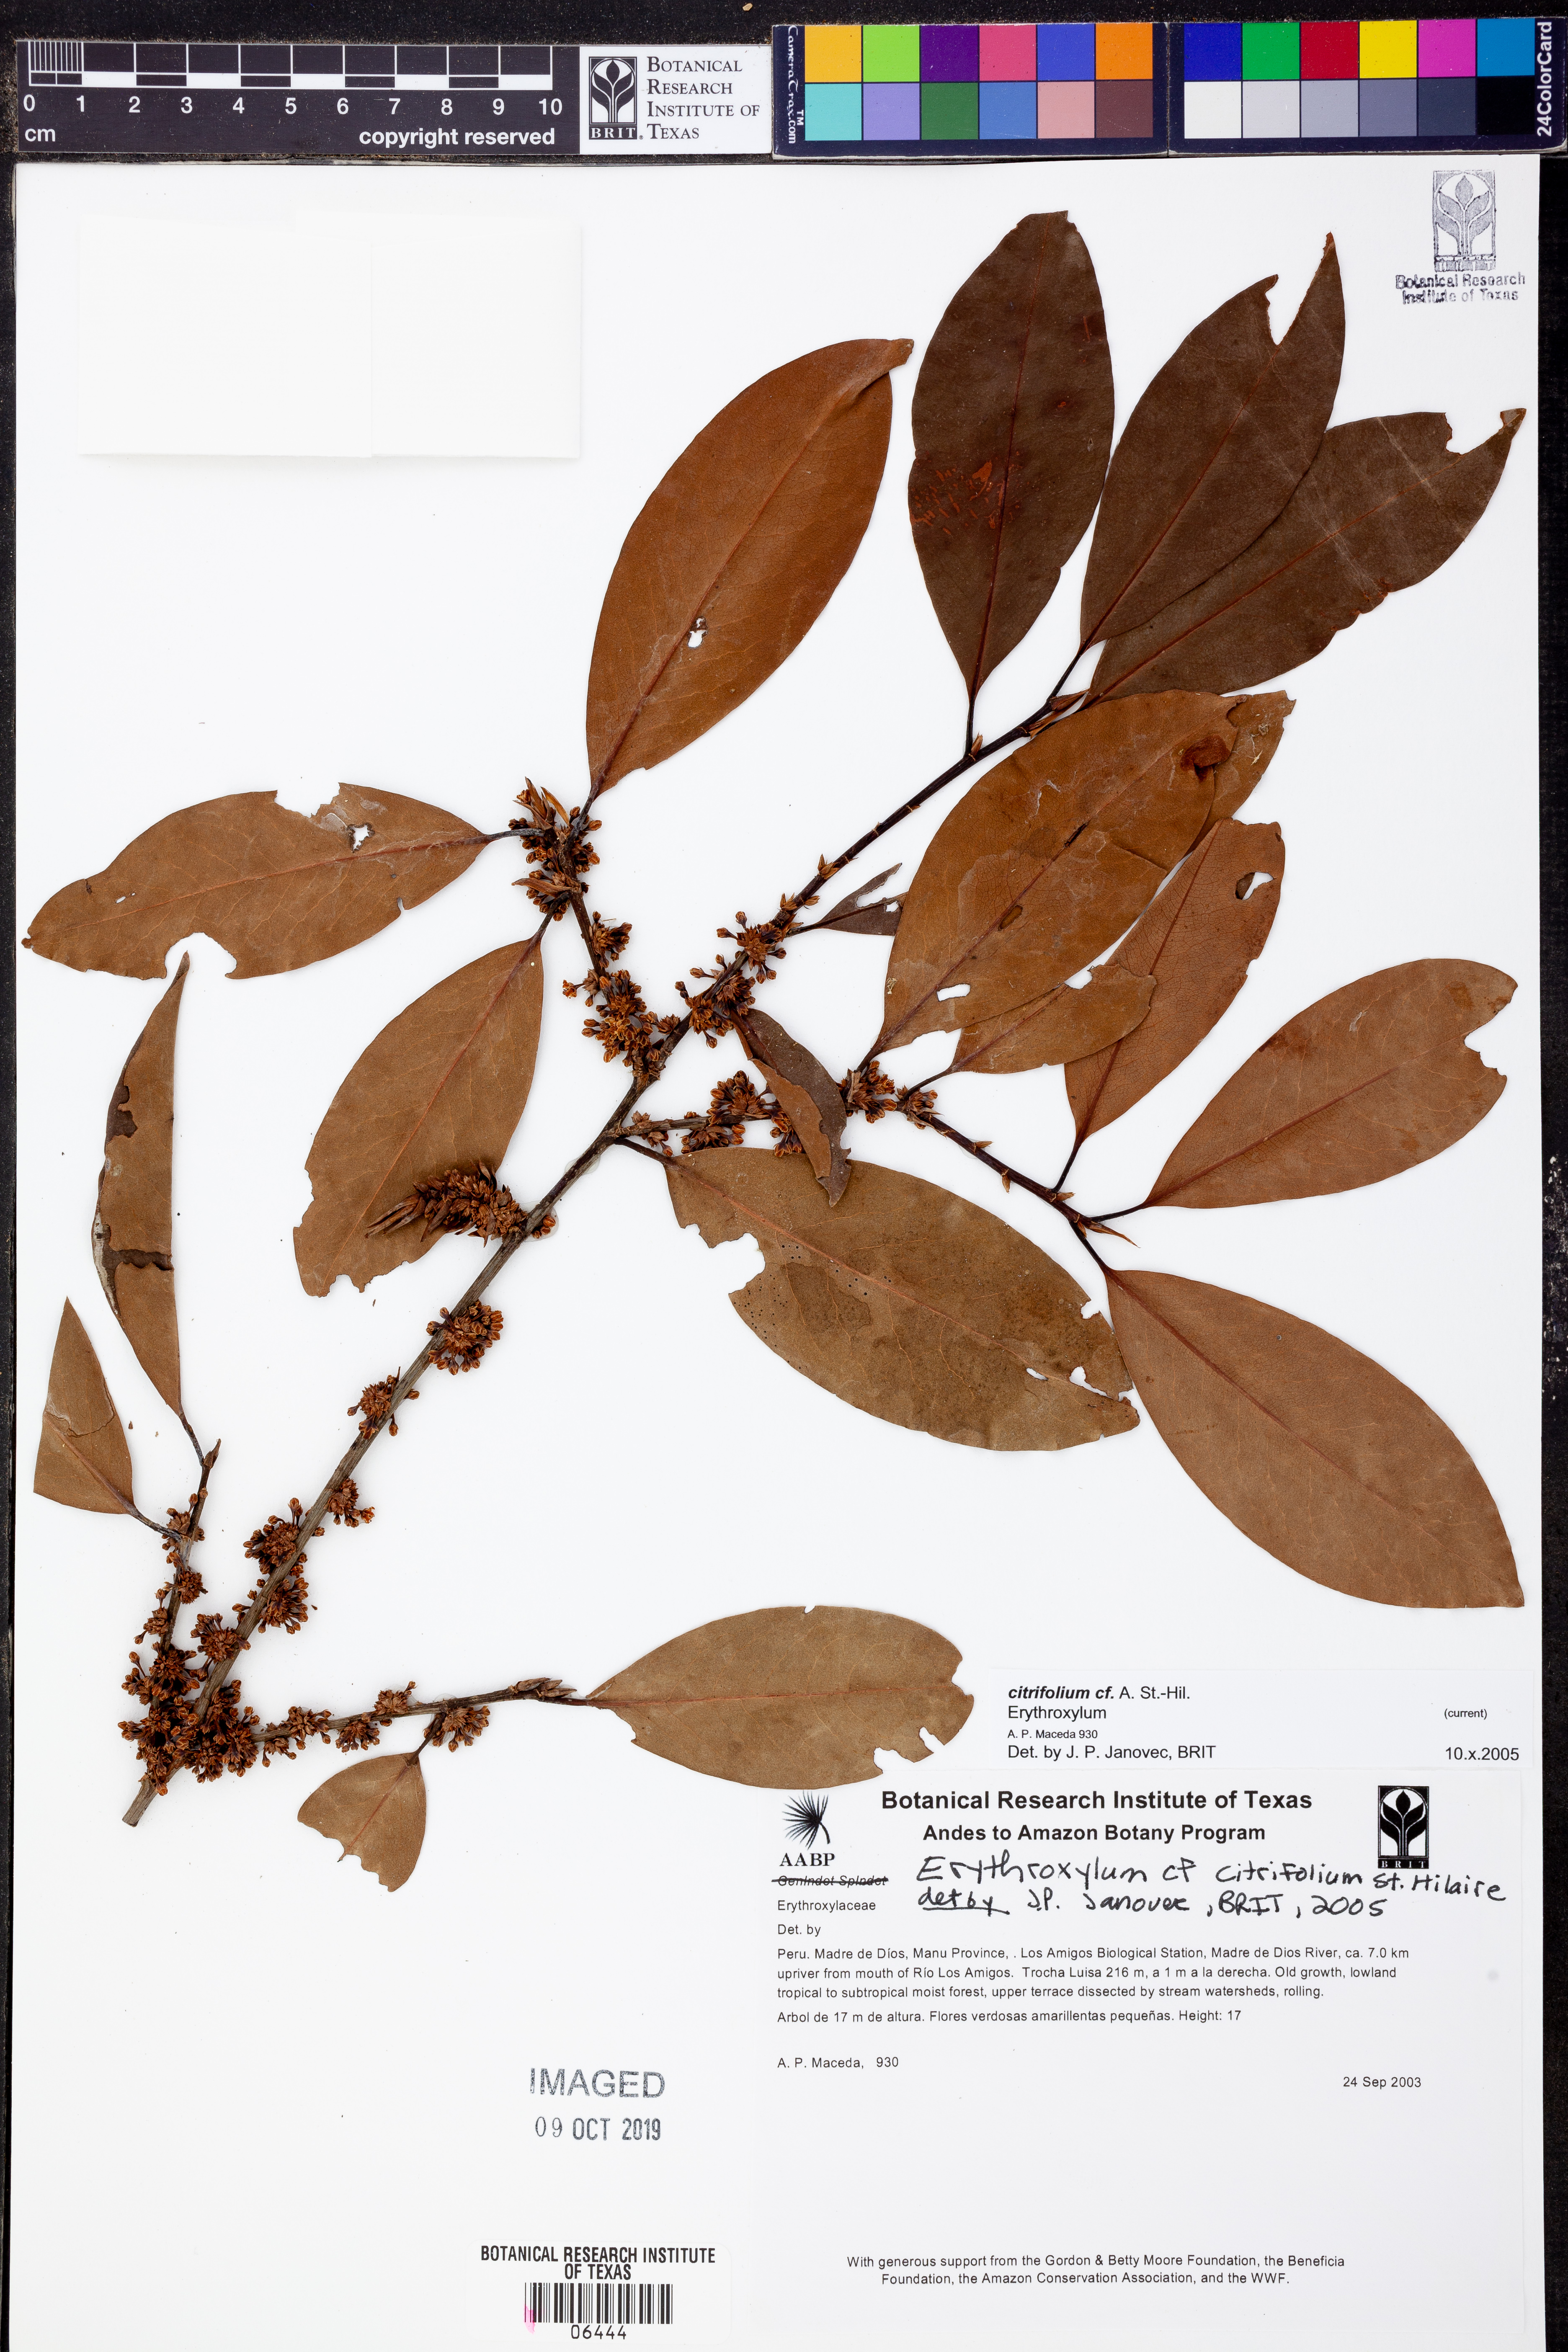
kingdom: Plantae
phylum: Tracheophyta
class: Magnoliopsida
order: Malpighiales
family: Erythroxylaceae
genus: Erythroxylum
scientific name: Erythroxylum
